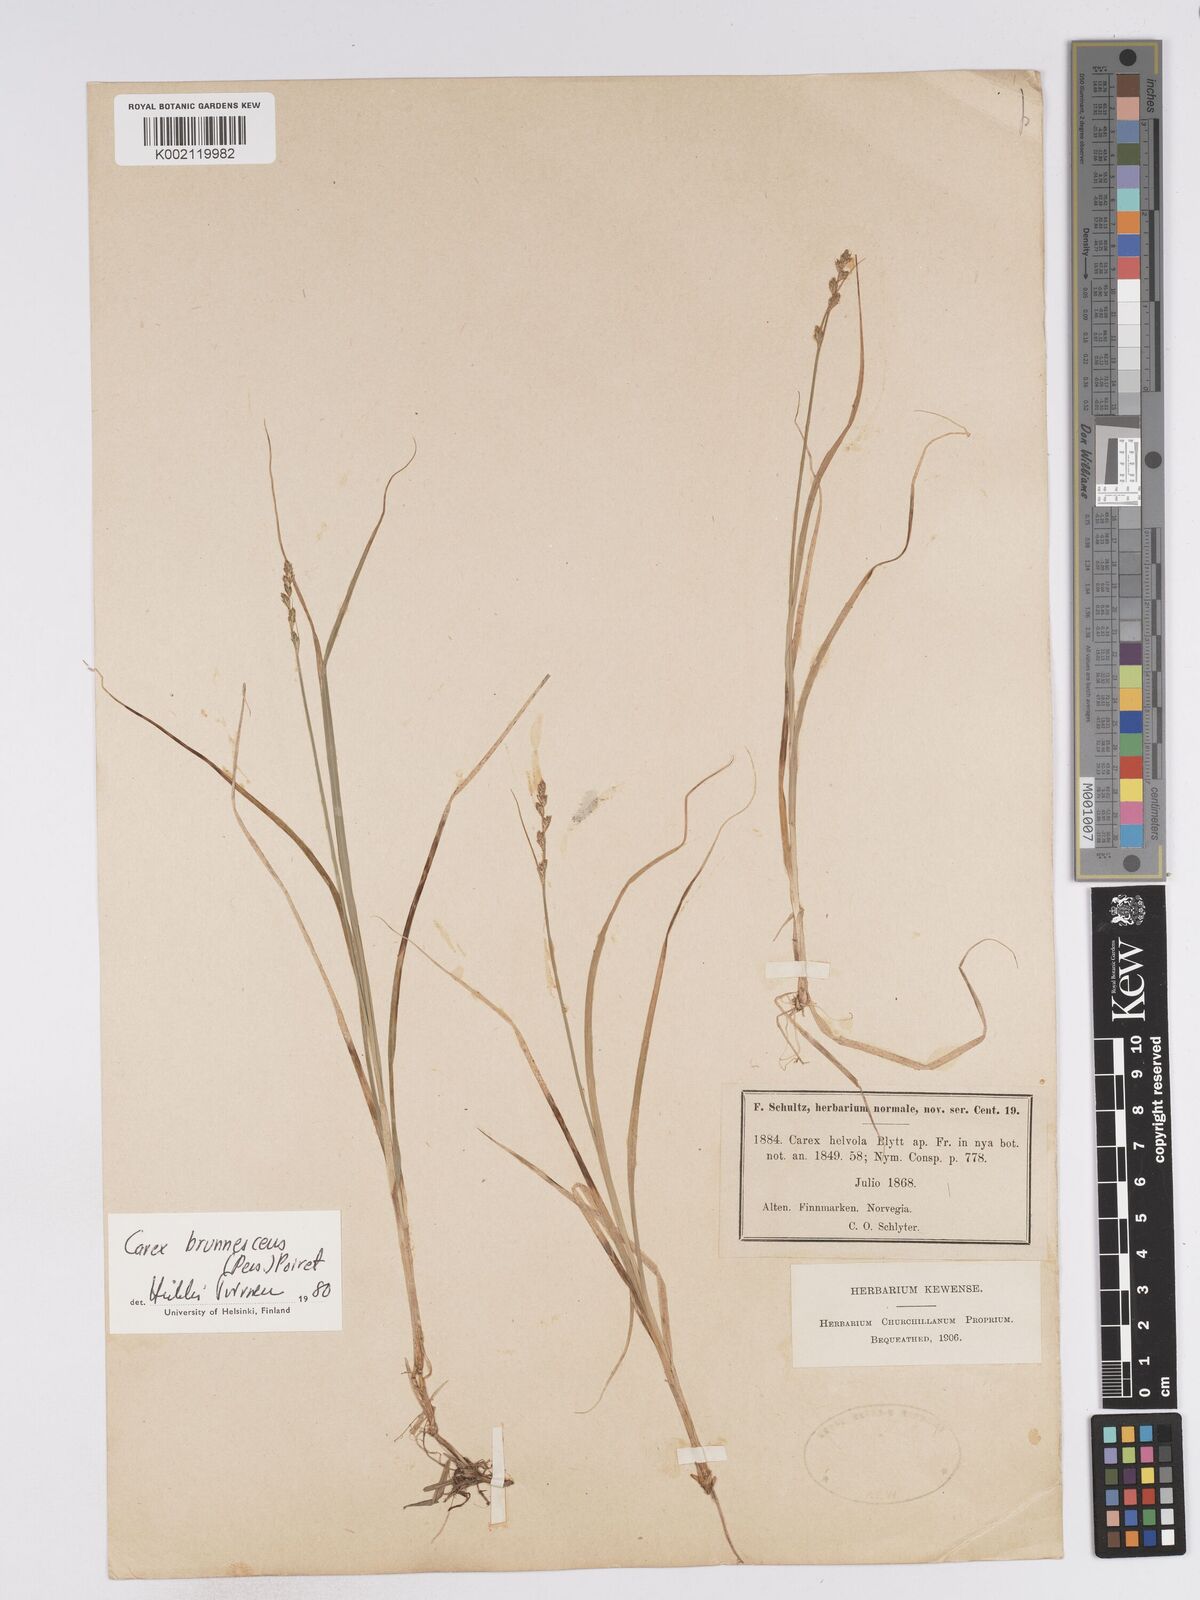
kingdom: Plantae
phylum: Tracheophyta
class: Liliopsida
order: Poales
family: Cyperaceae
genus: Carex
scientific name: Carex brunnescens
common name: Brown sedge
